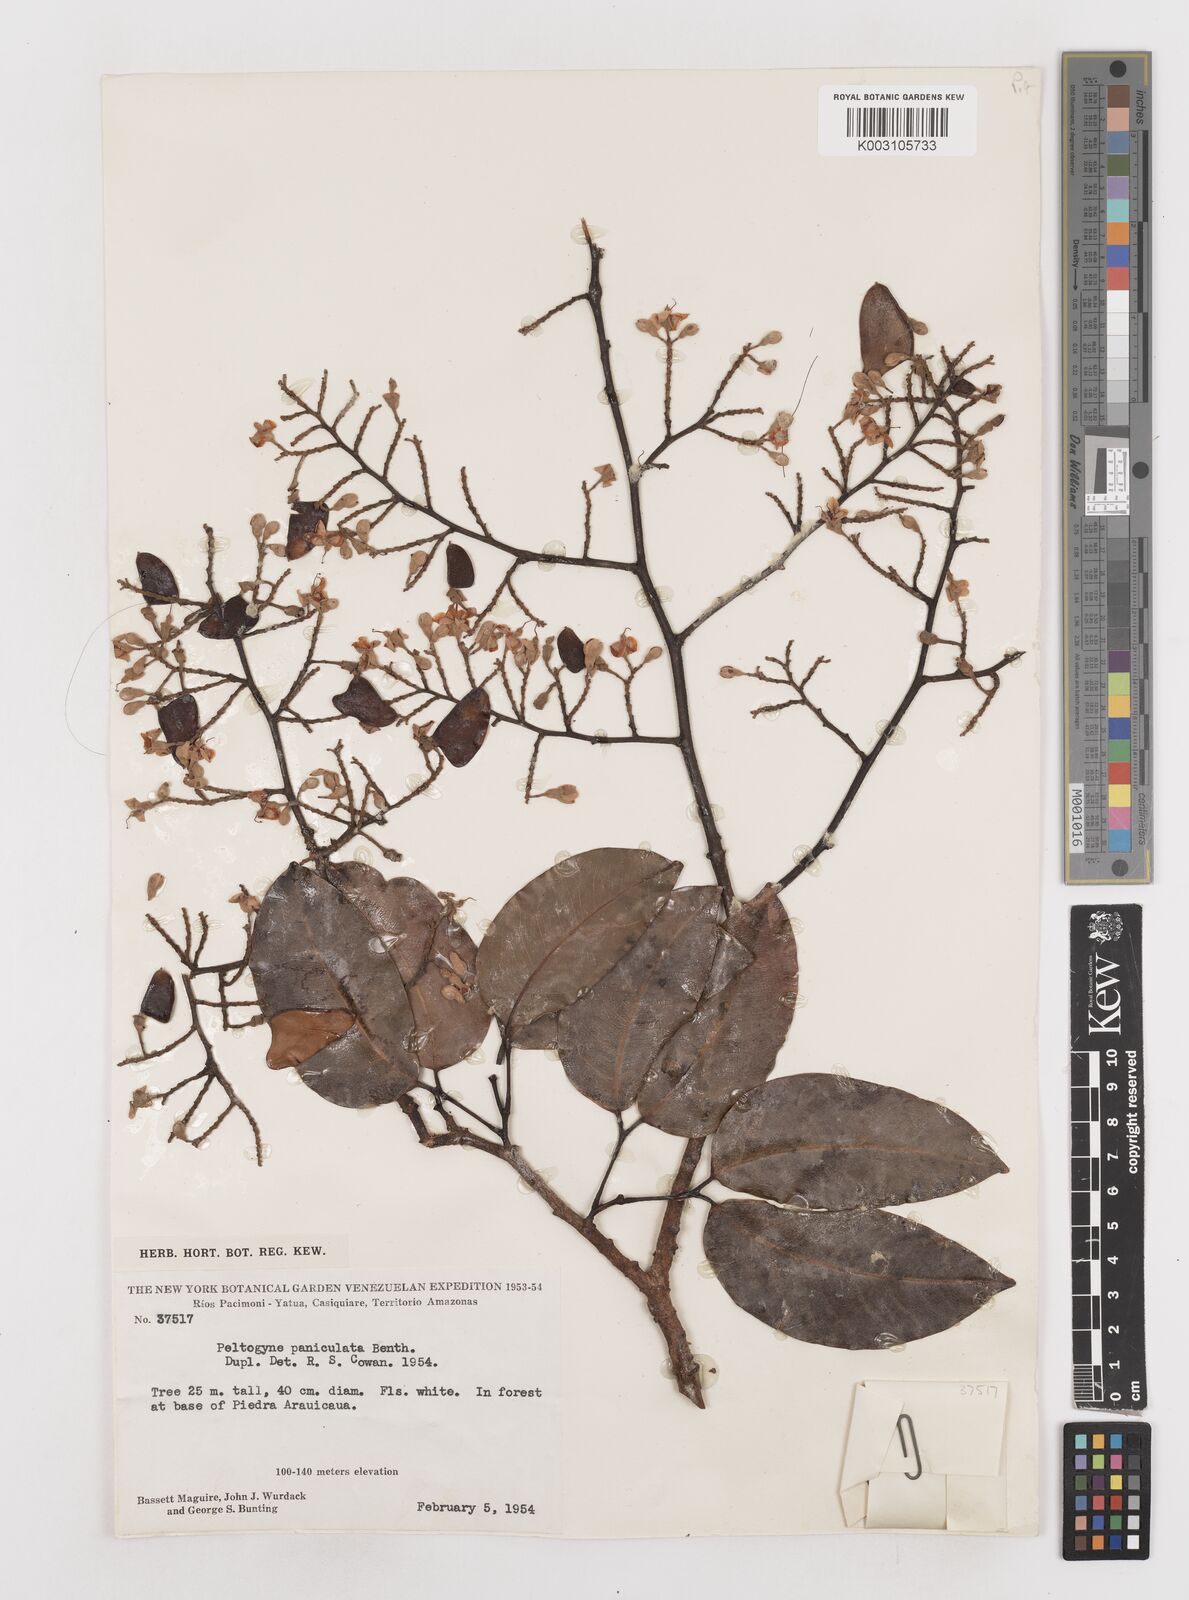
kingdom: Plantae
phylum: Tracheophyta
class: Magnoliopsida
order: Fabales
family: Fabaceae
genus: Peltogyne
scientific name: Peltogyne paniculata
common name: Purpleheart
